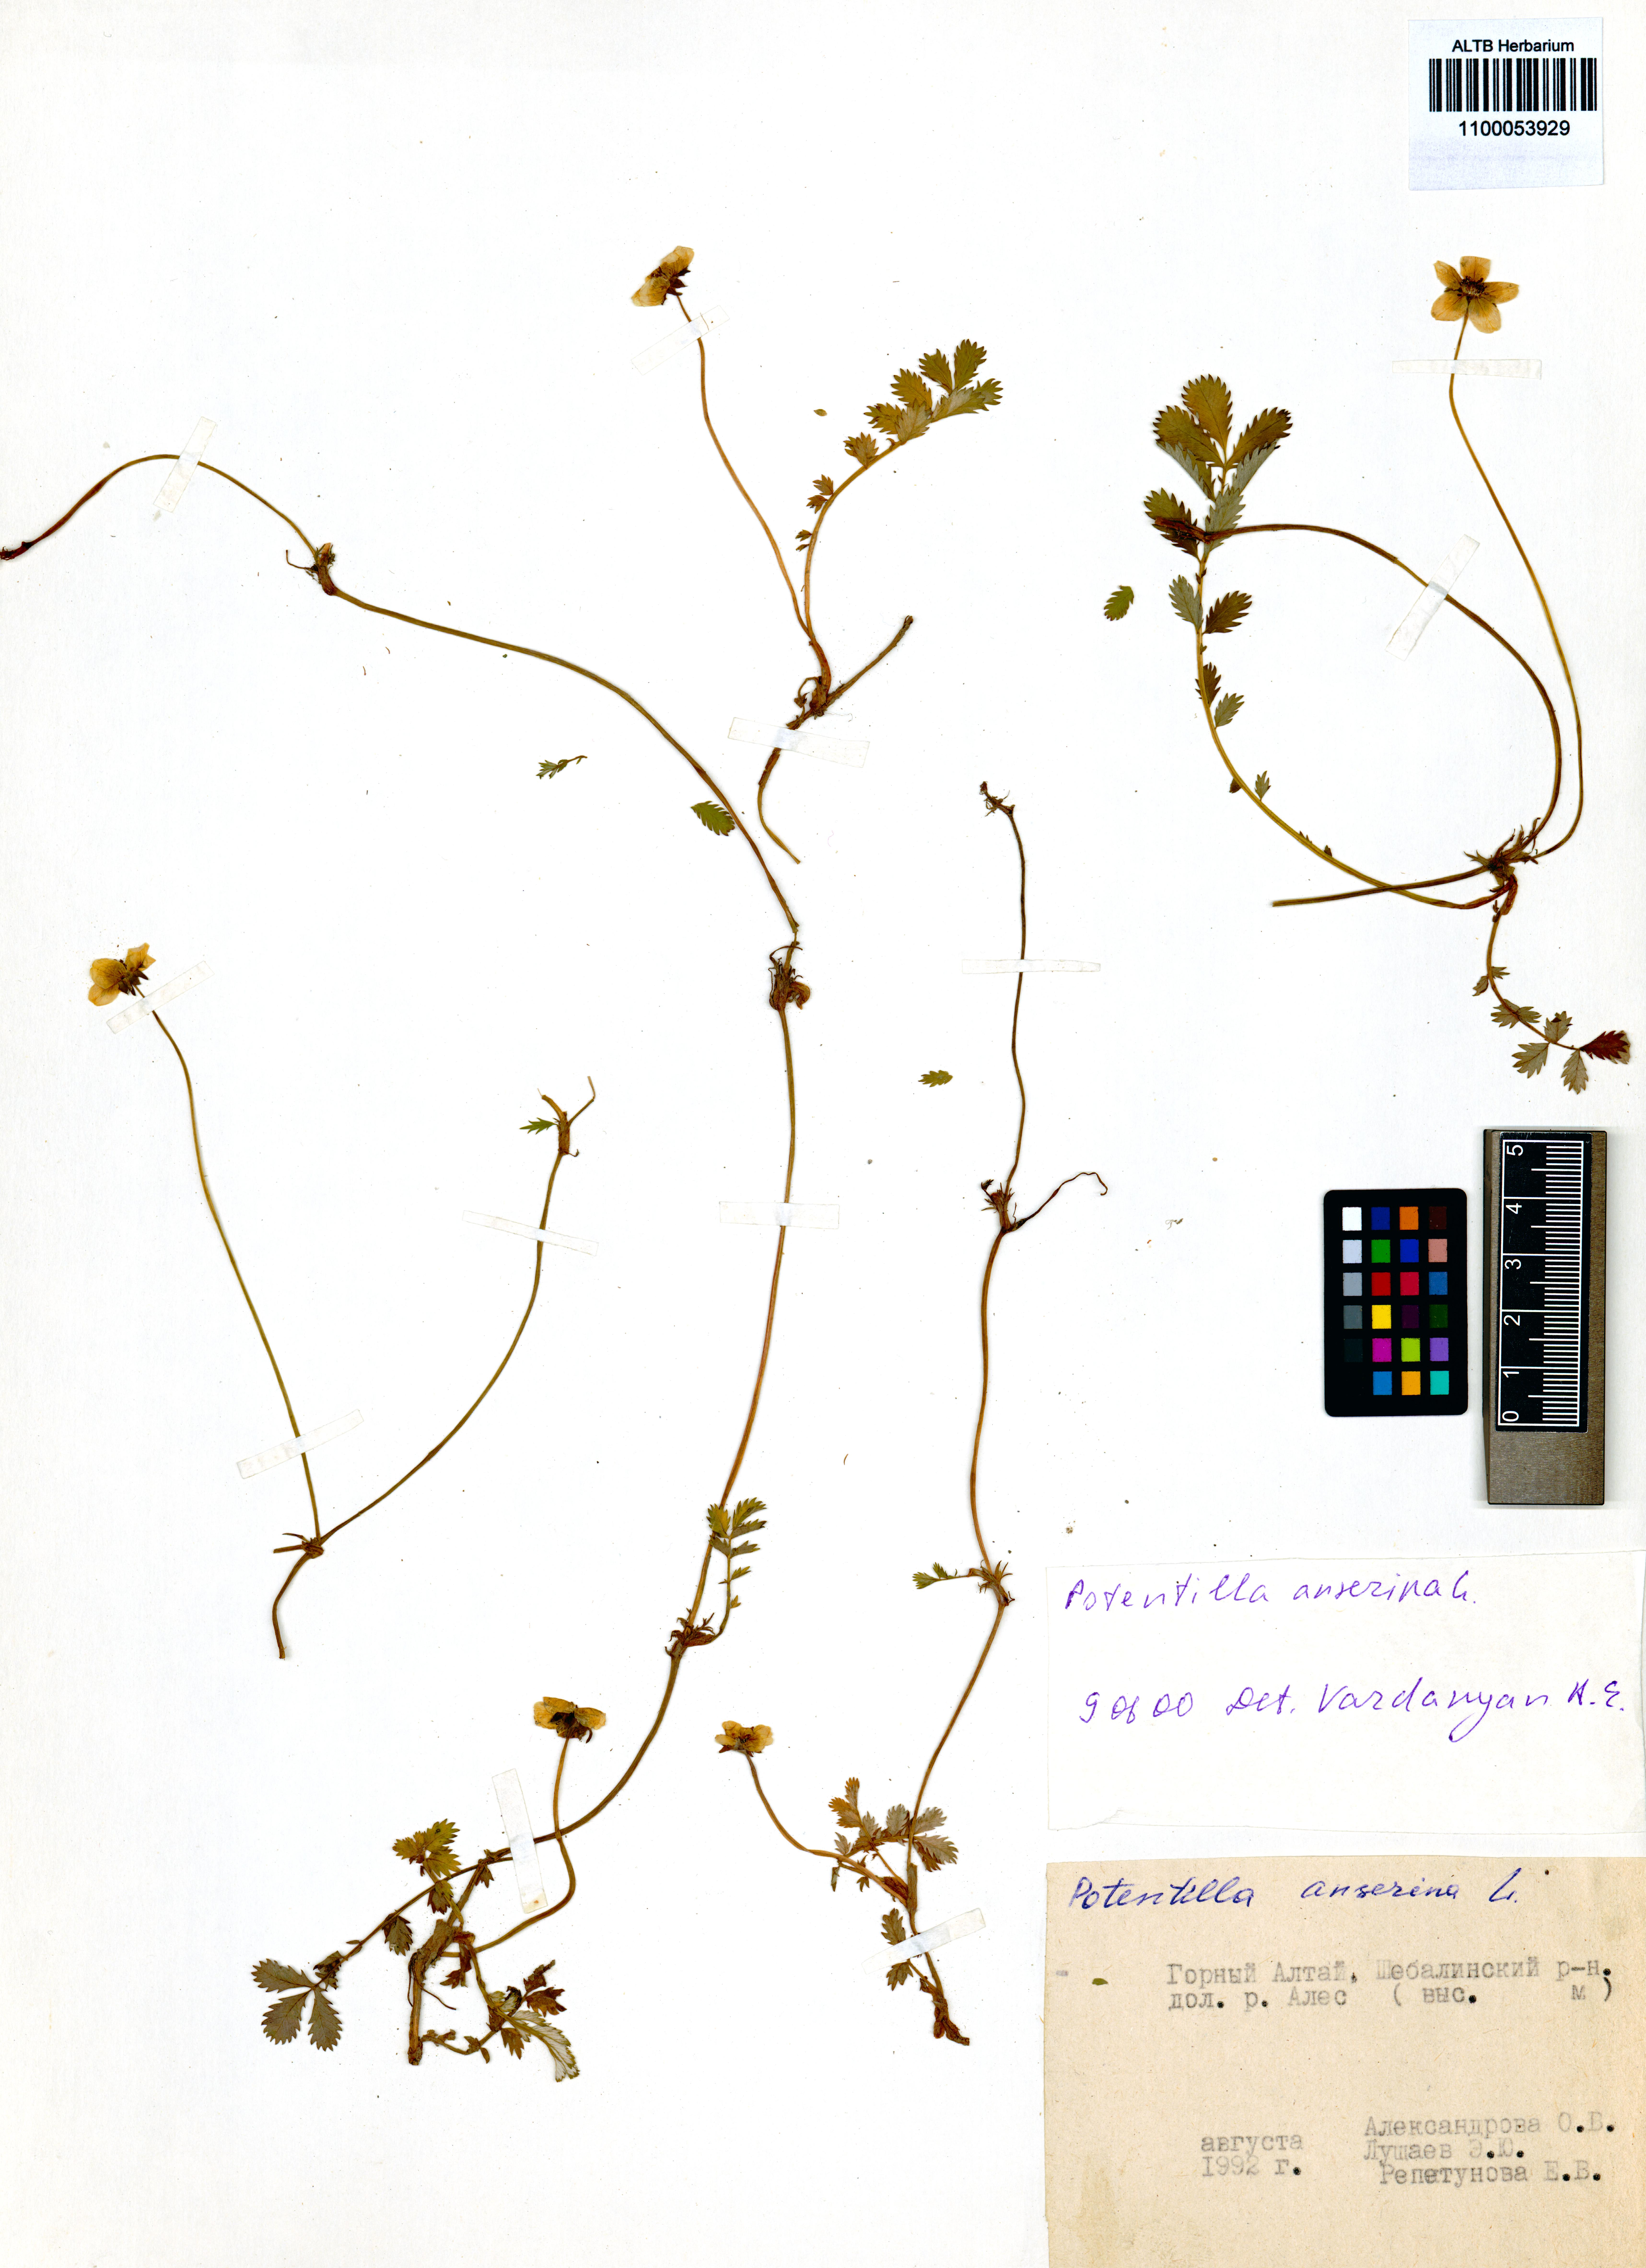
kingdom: Plantae
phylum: Tracheophyta
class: Magnoliopsida
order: Rosales
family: Rosaceae
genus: Argentina
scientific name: Argentina anserina
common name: Common silverweed
